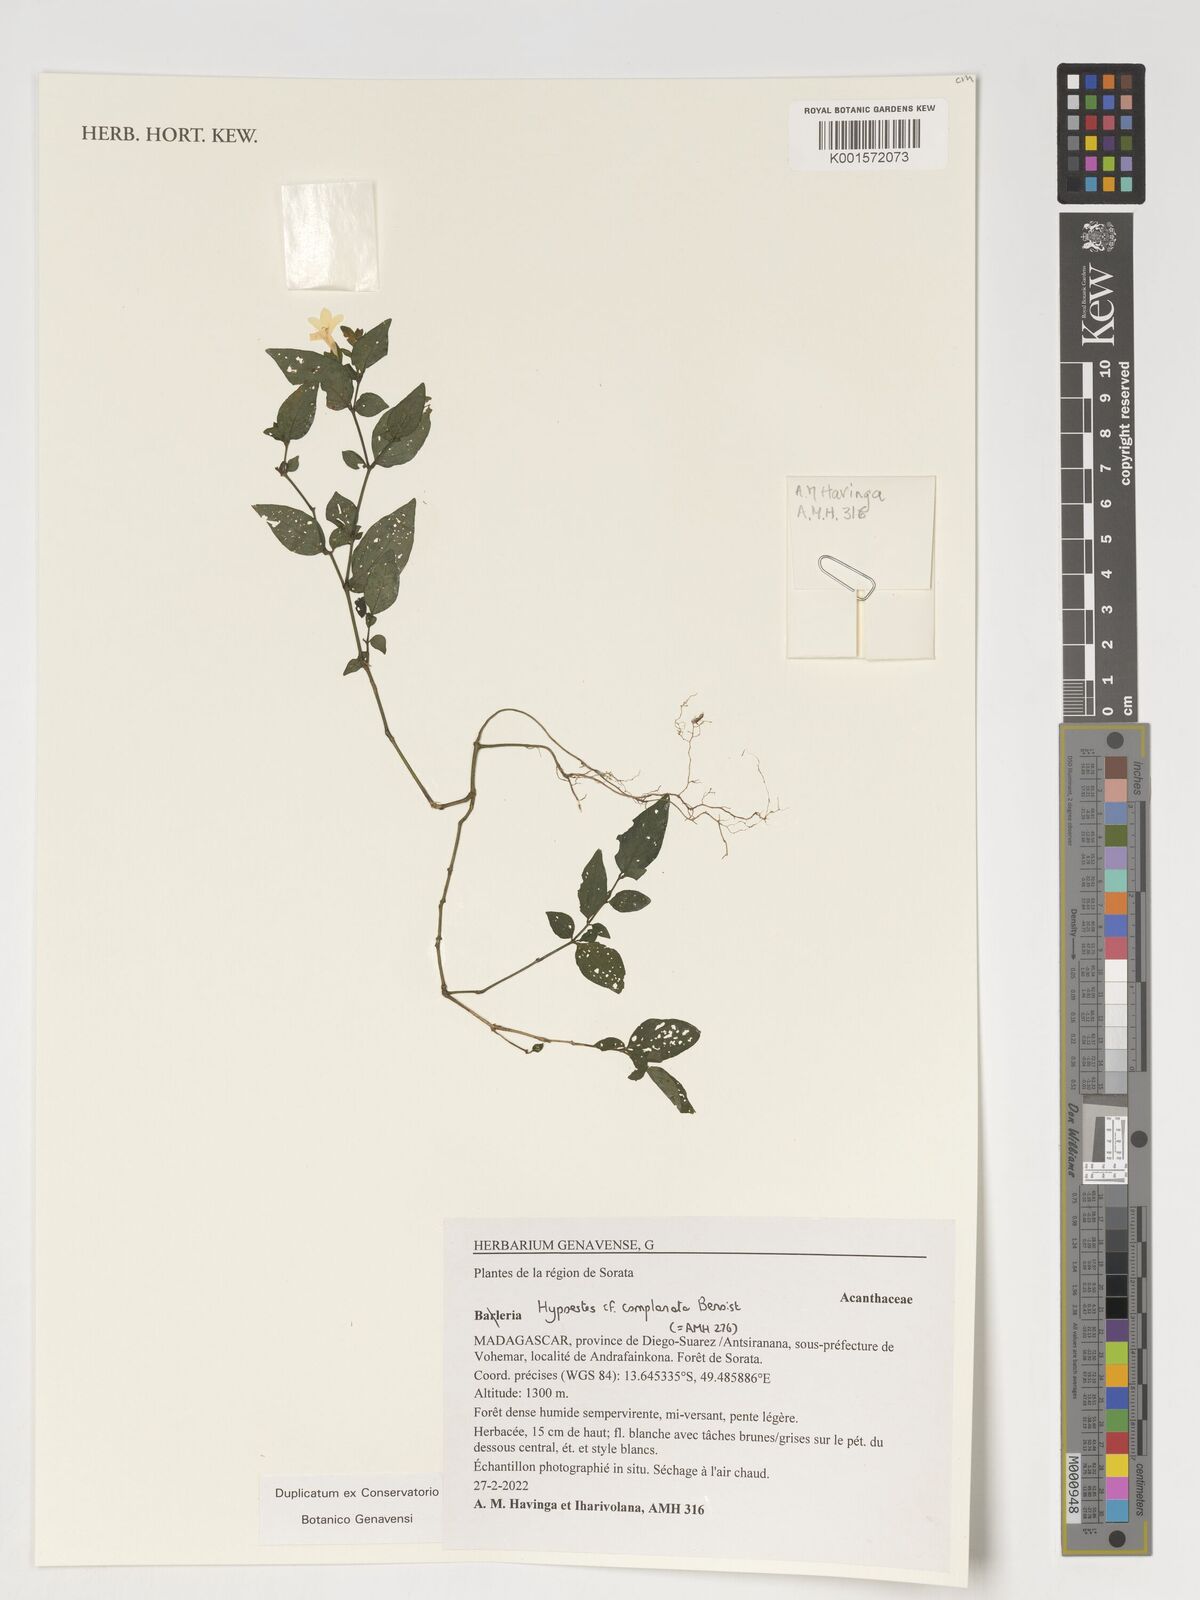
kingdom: Plantae
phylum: Tracheophyta
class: Magnoliopsida
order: Lamiales
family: Acanthaceae
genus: Barleria
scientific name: Barleria
